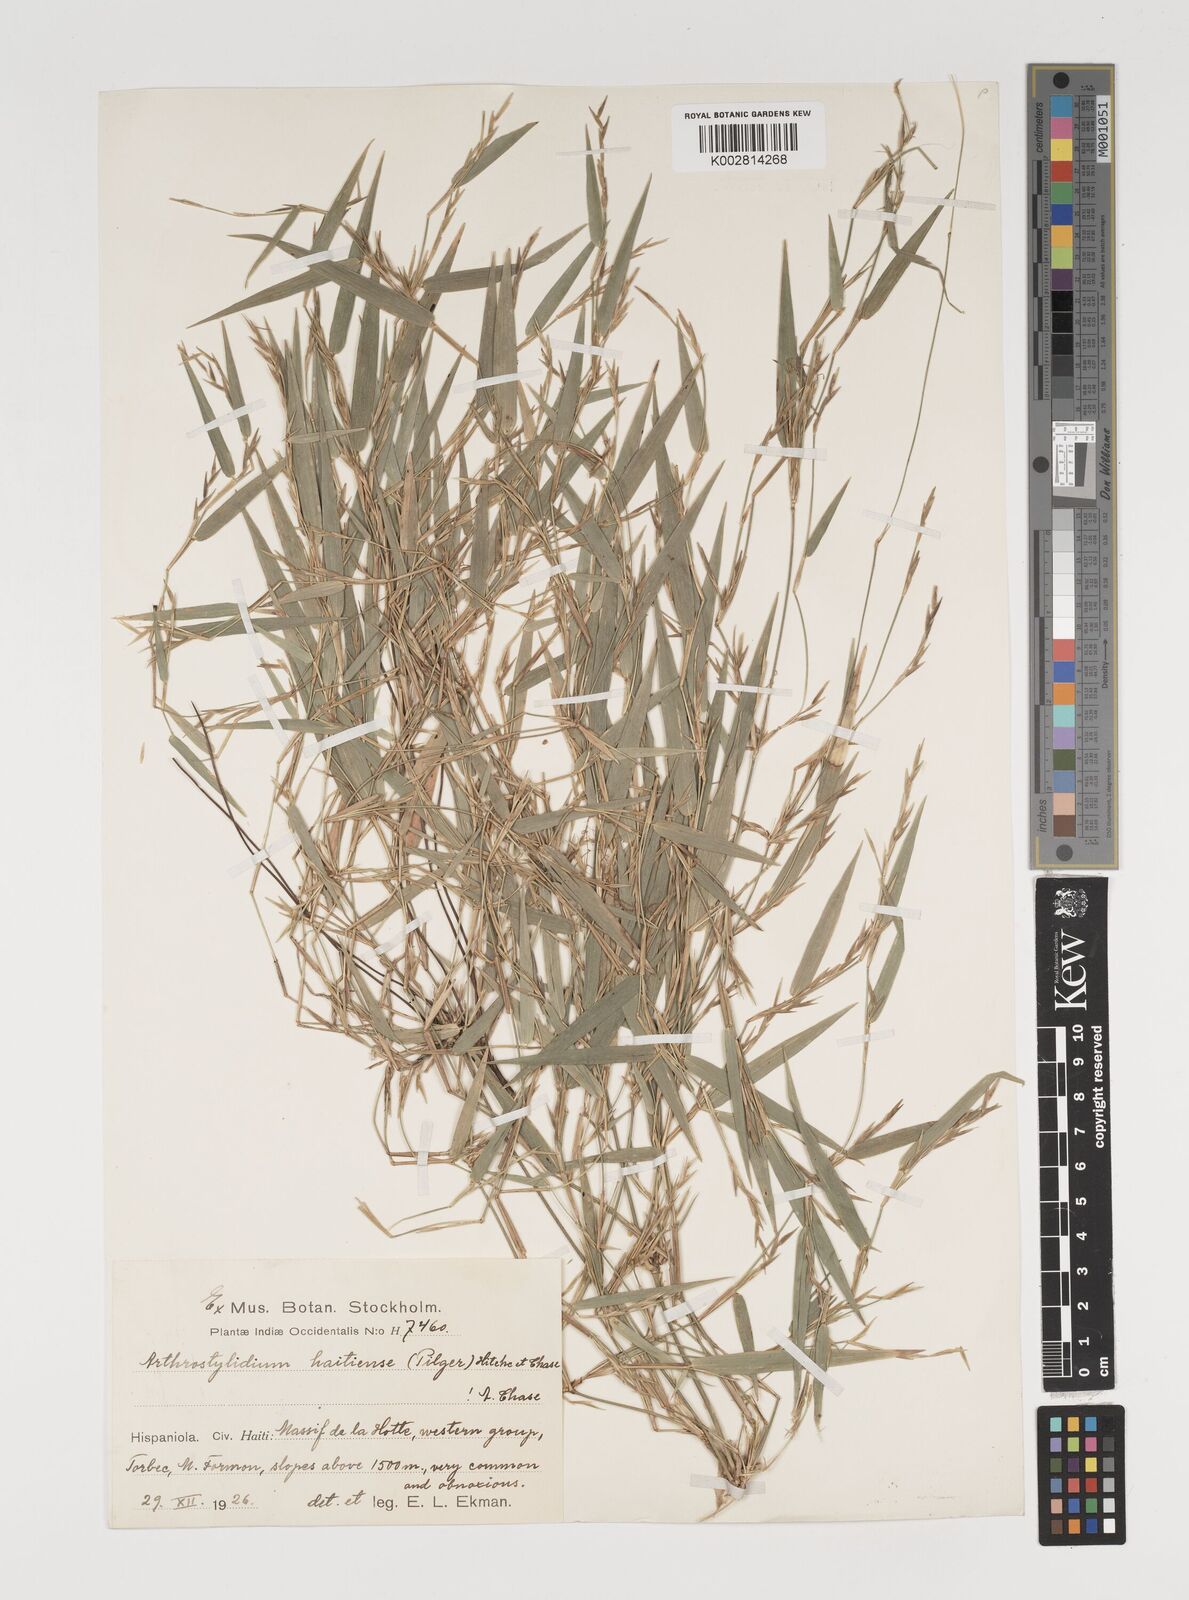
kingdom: Plantae
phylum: Tracheophyta
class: Liliopsida
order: Poales
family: Poaceae
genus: Arthrostylidium
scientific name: Arthrostylidium haitiense
